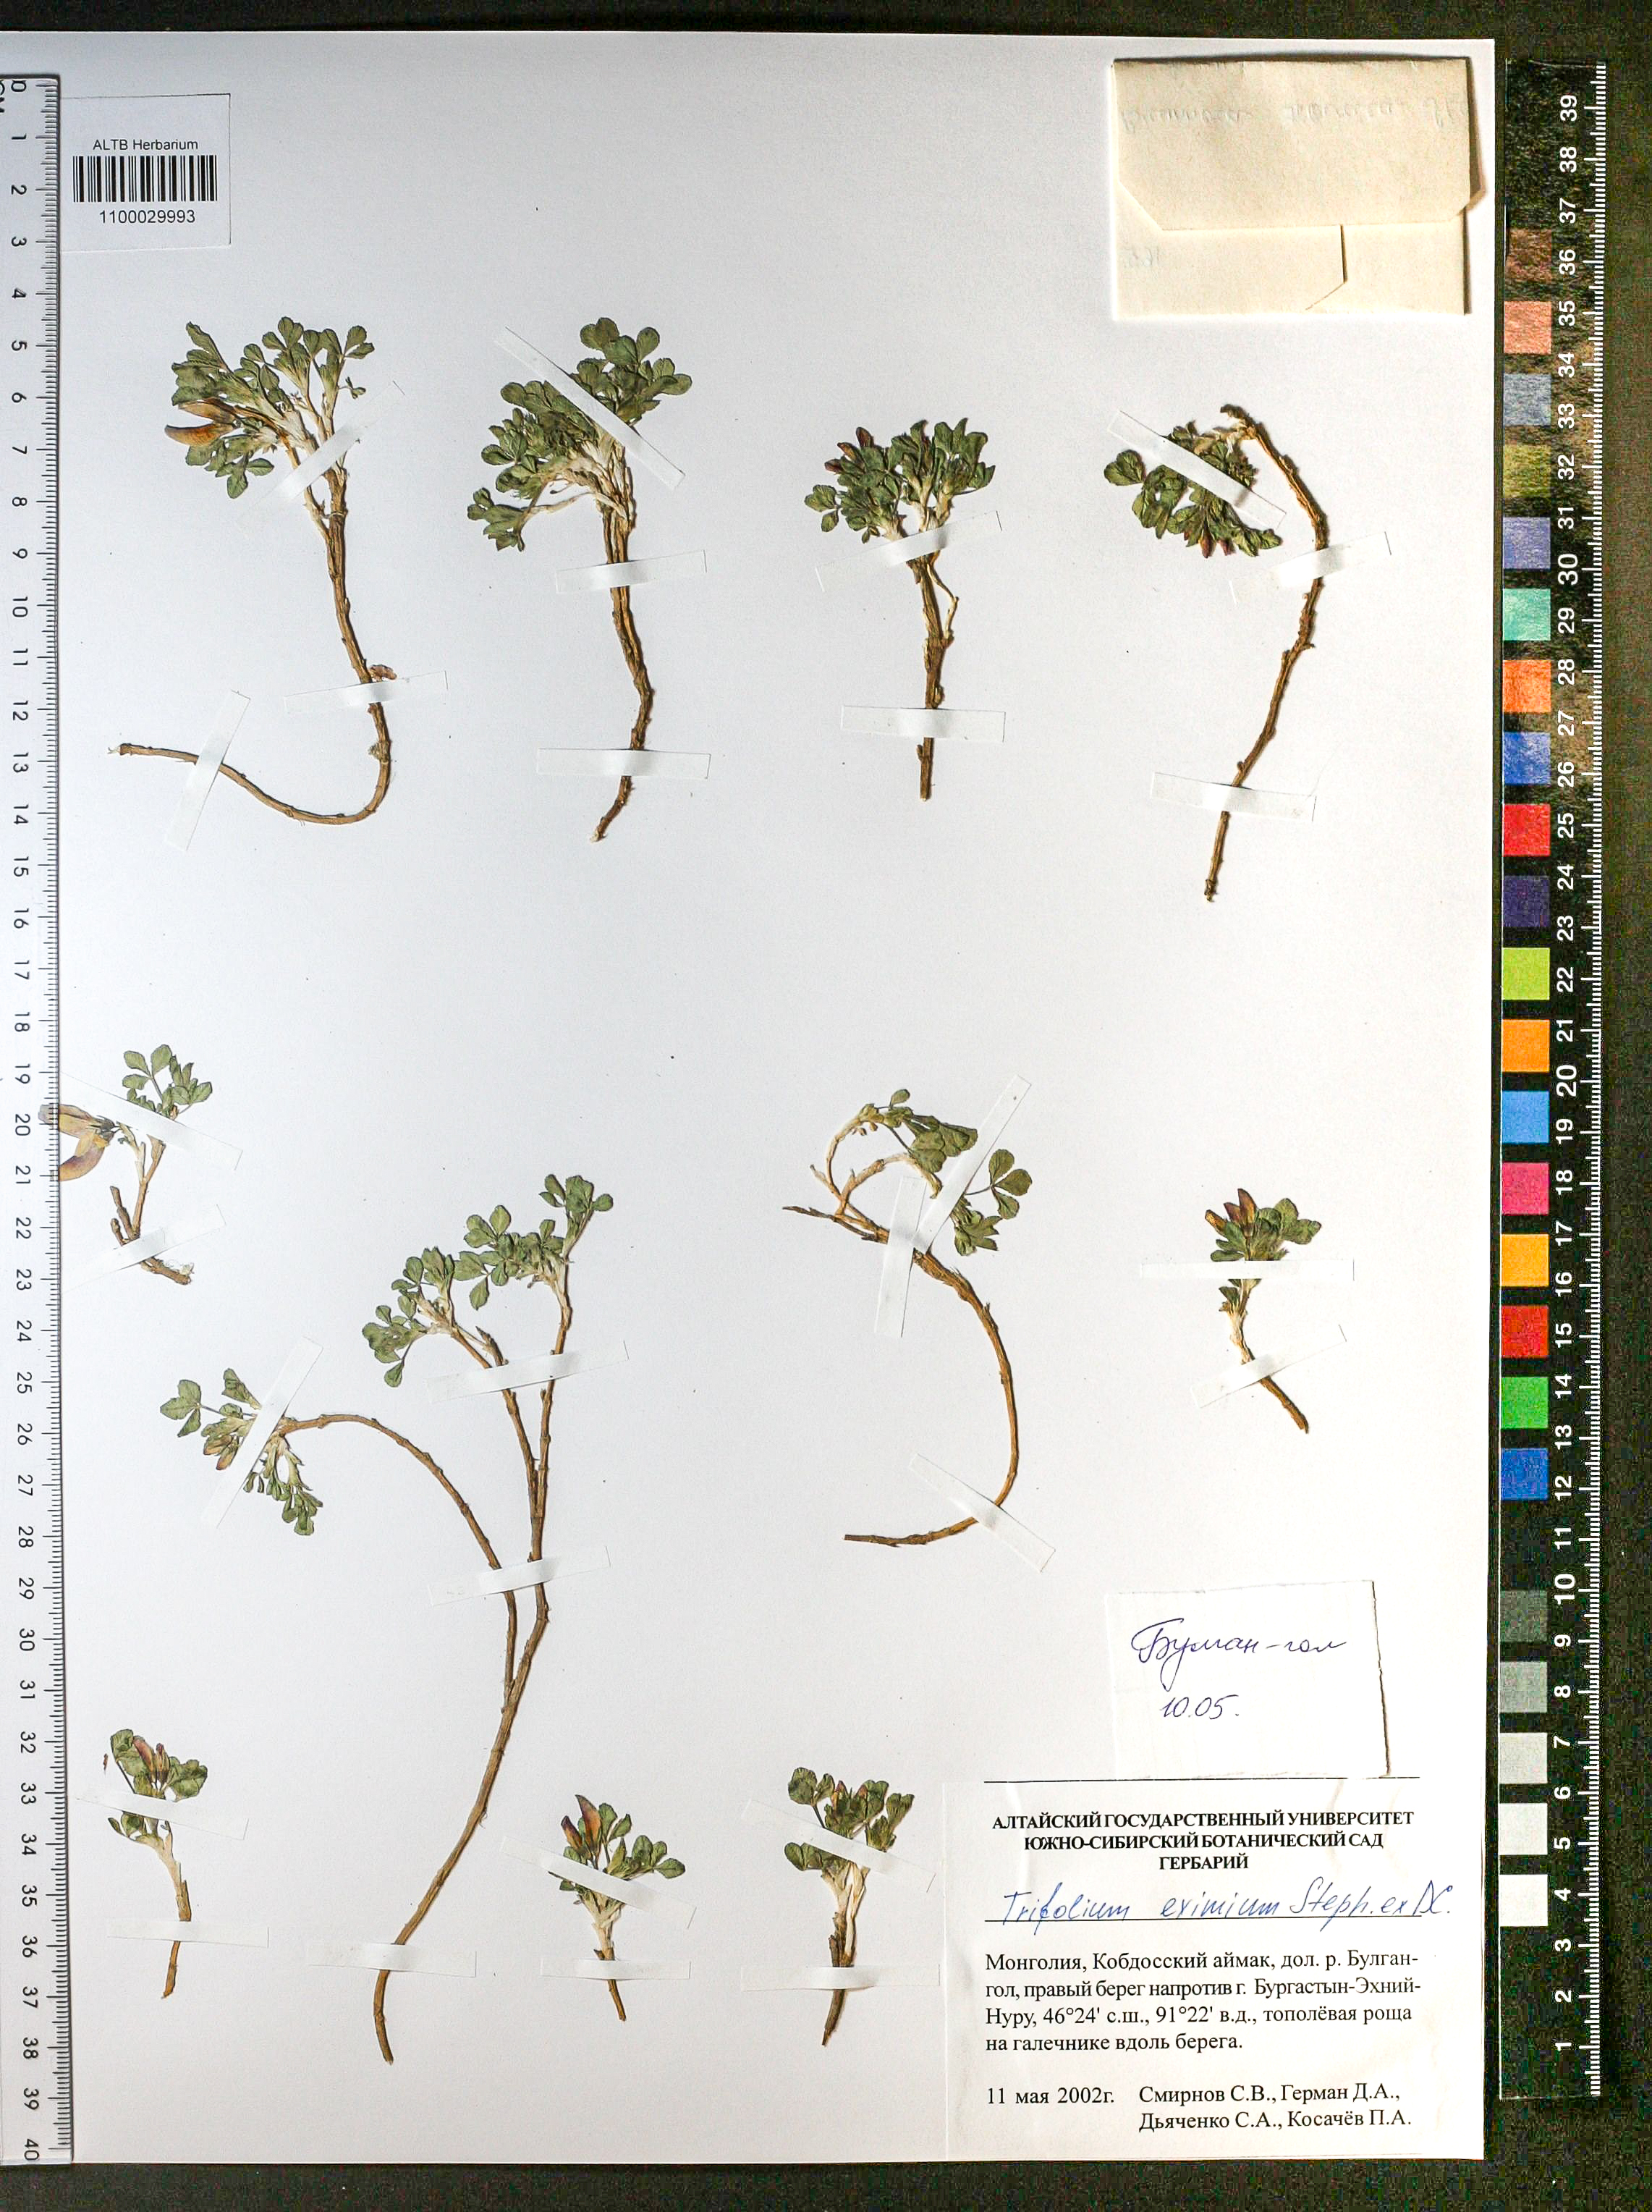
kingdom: Plantae
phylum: Tracheophyta
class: Magnoliopsida
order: Fabales
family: Fabaceae
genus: Trifolium
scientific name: Trifolium eximium
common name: Excellent clover
